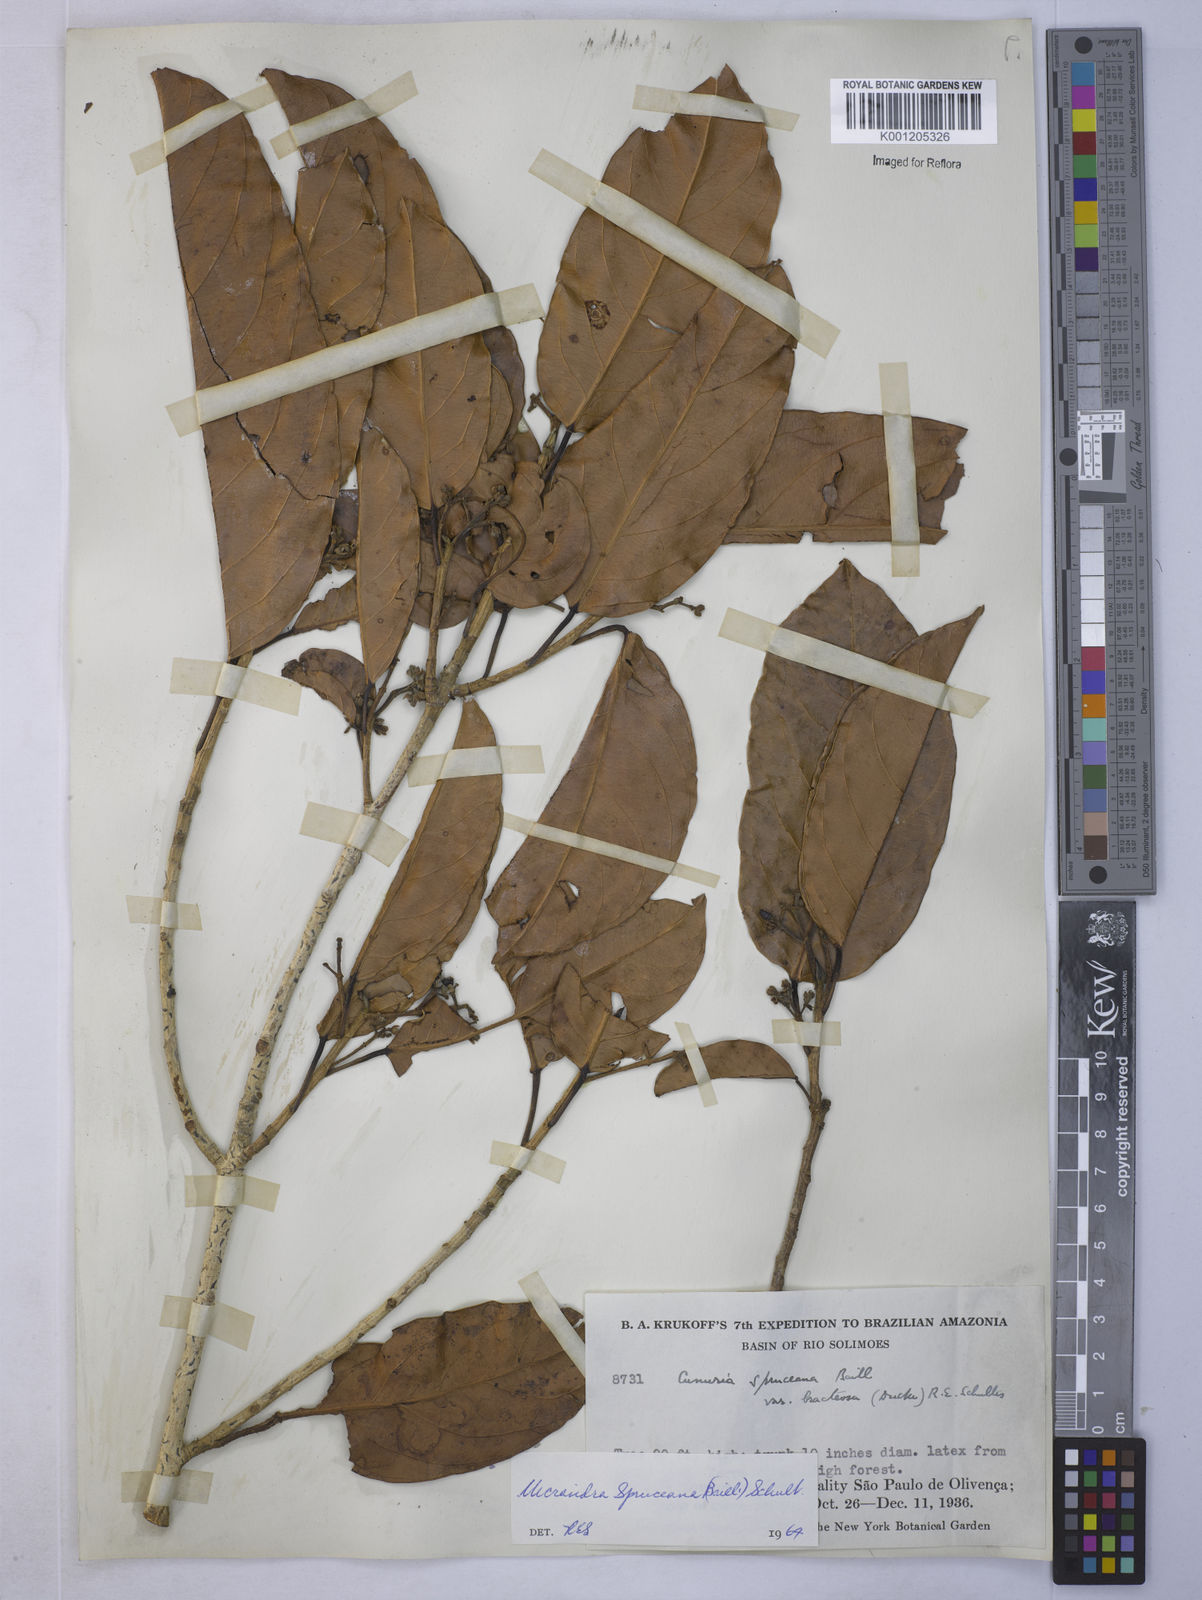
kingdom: Plantae
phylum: Tracheophyta
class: Magnoliopsida
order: Malpighiales
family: Euphorbiaceae
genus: Micrandra
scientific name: Micrandra spruceana
